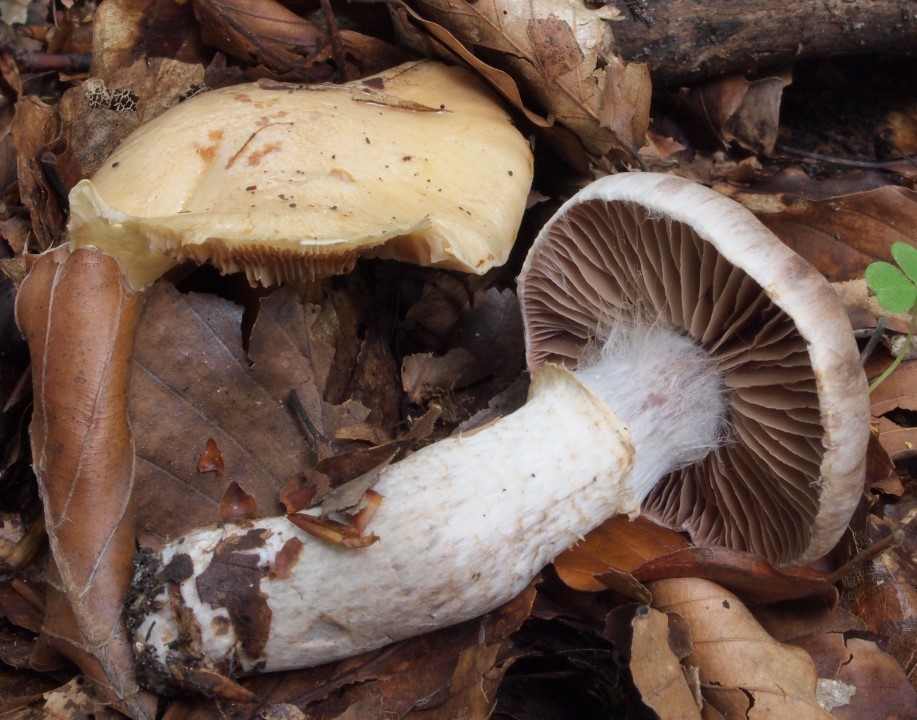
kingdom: Fungi
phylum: Basidiomycota
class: Agaricomycetes
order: Agaricales
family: Cortinariaceae
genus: Cortinarius
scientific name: Cortinarius torvus
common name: champignonagtig slørhat
